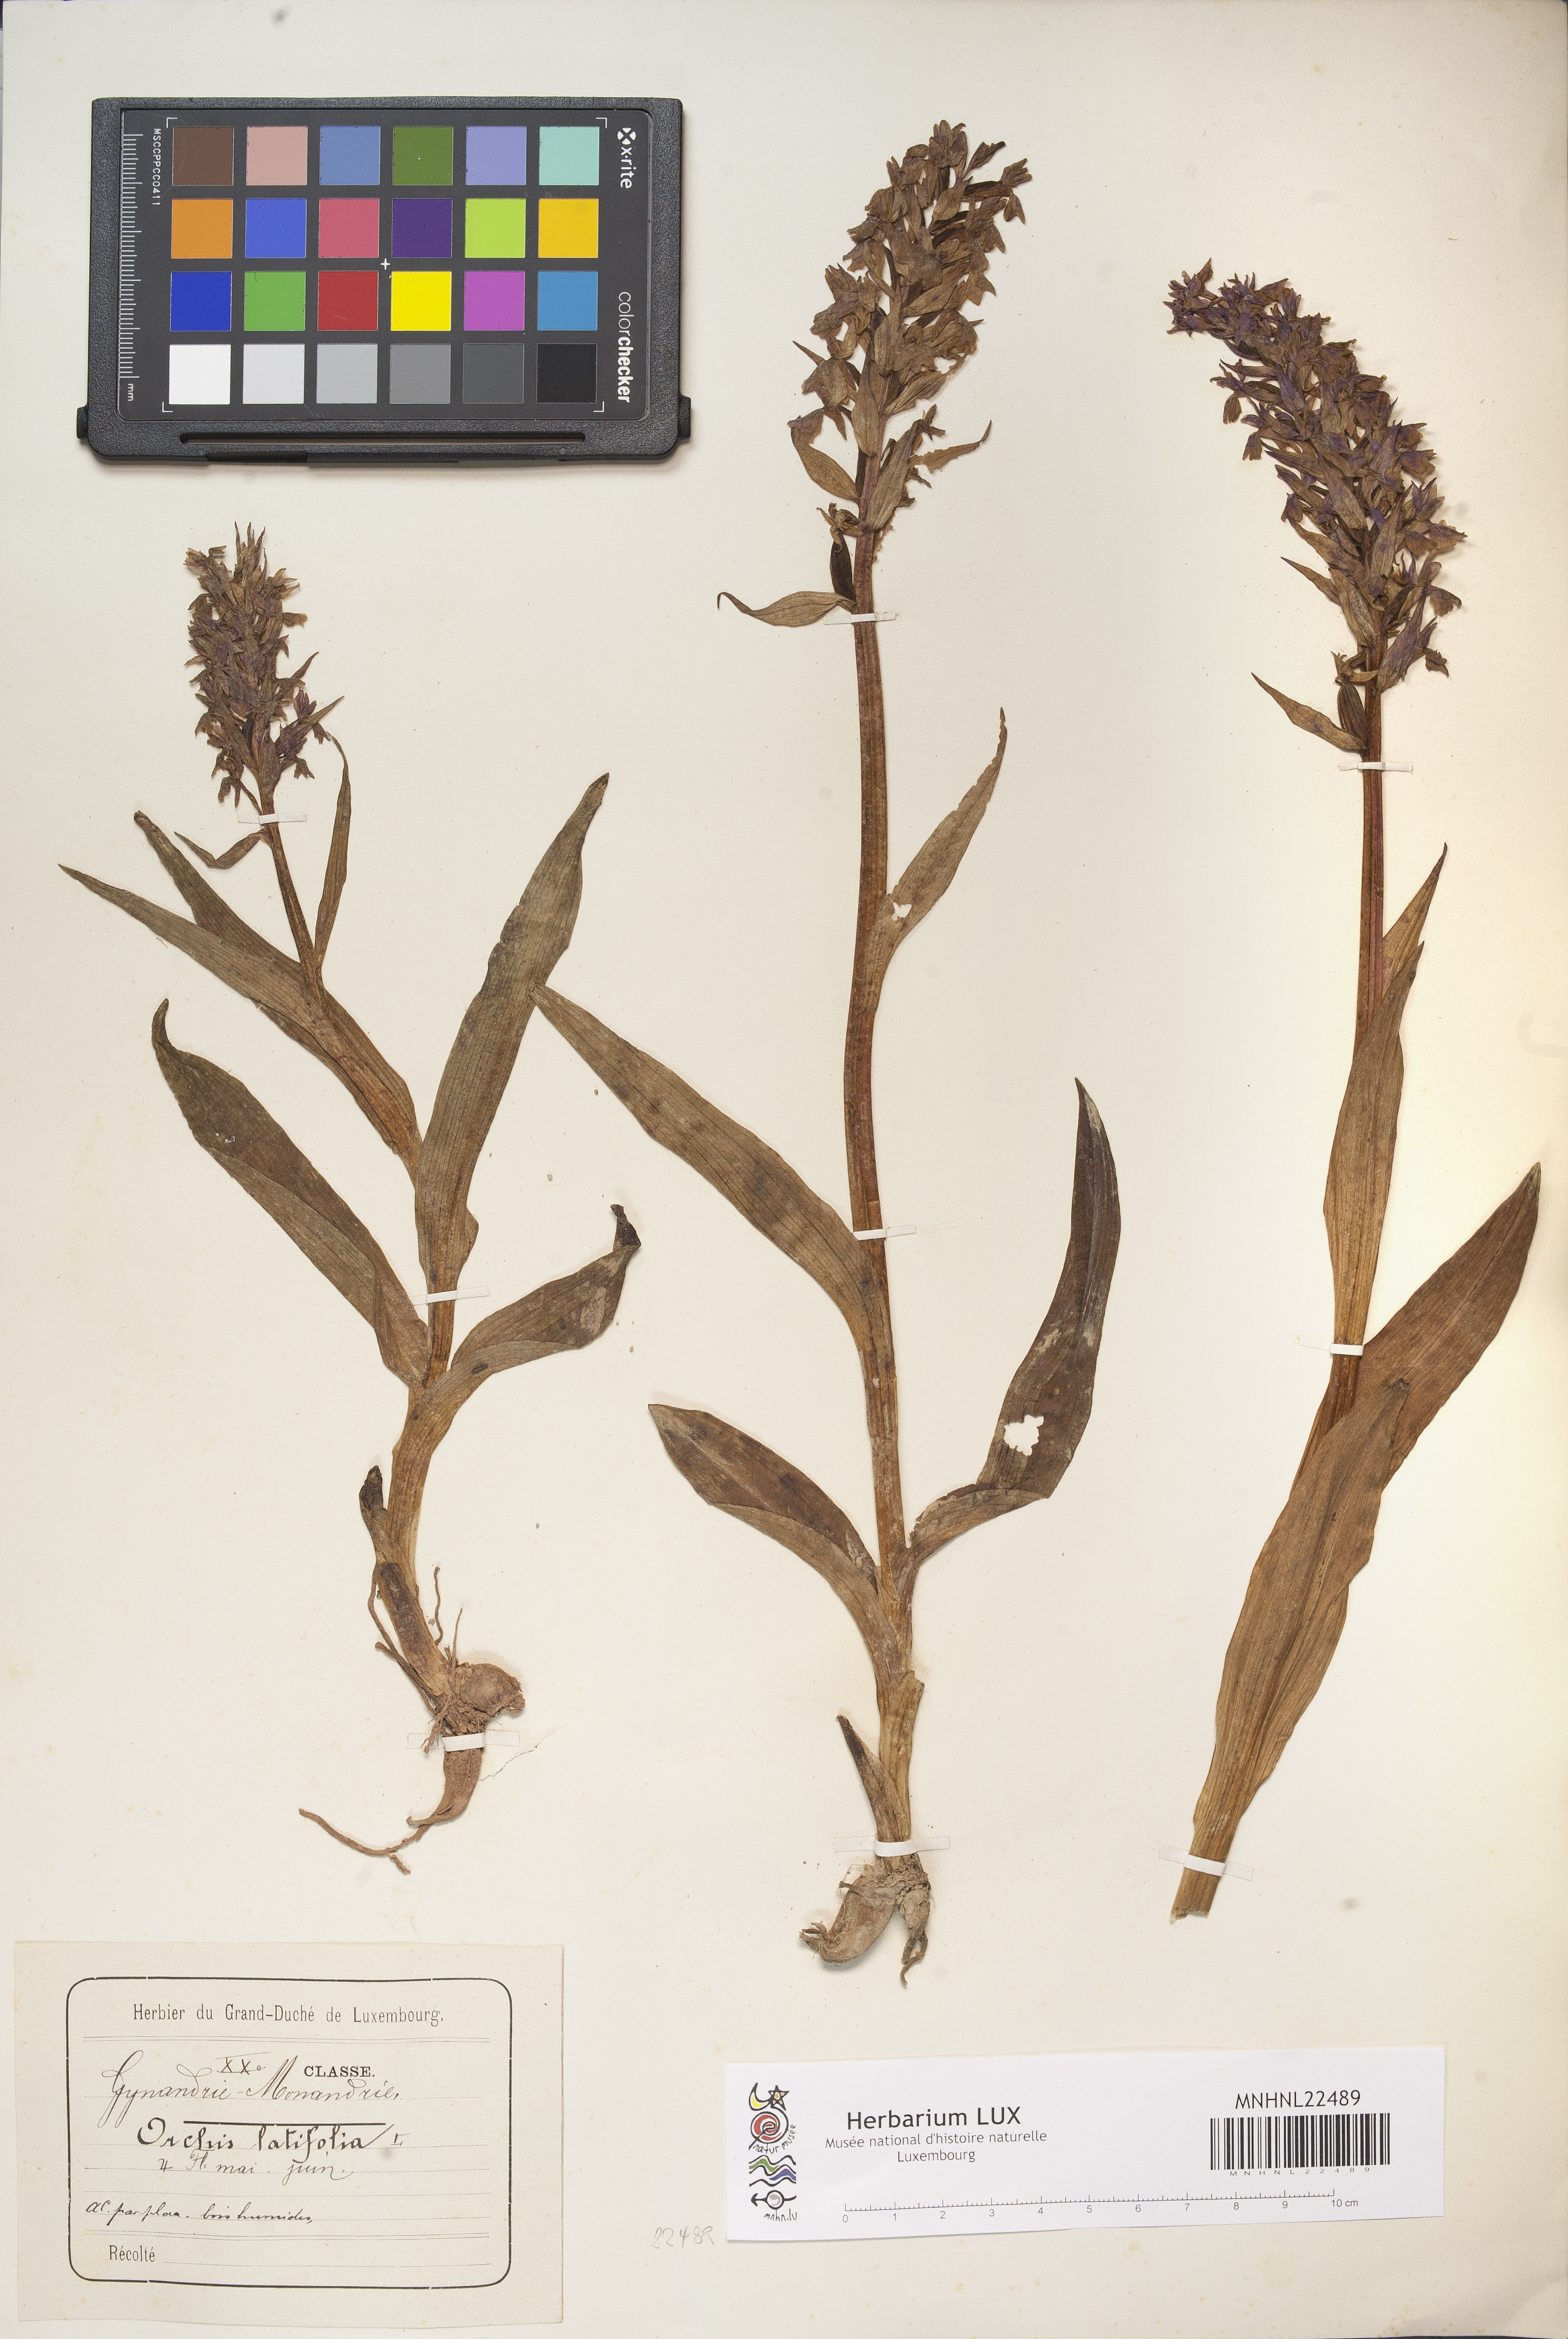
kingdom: Plantae
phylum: Tracheophyta
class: Liliopsida
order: Asparagales
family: Orchidaceae
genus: Dactylorhiza
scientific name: Dactylorhiza incarnata
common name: Early marsh-orchid
